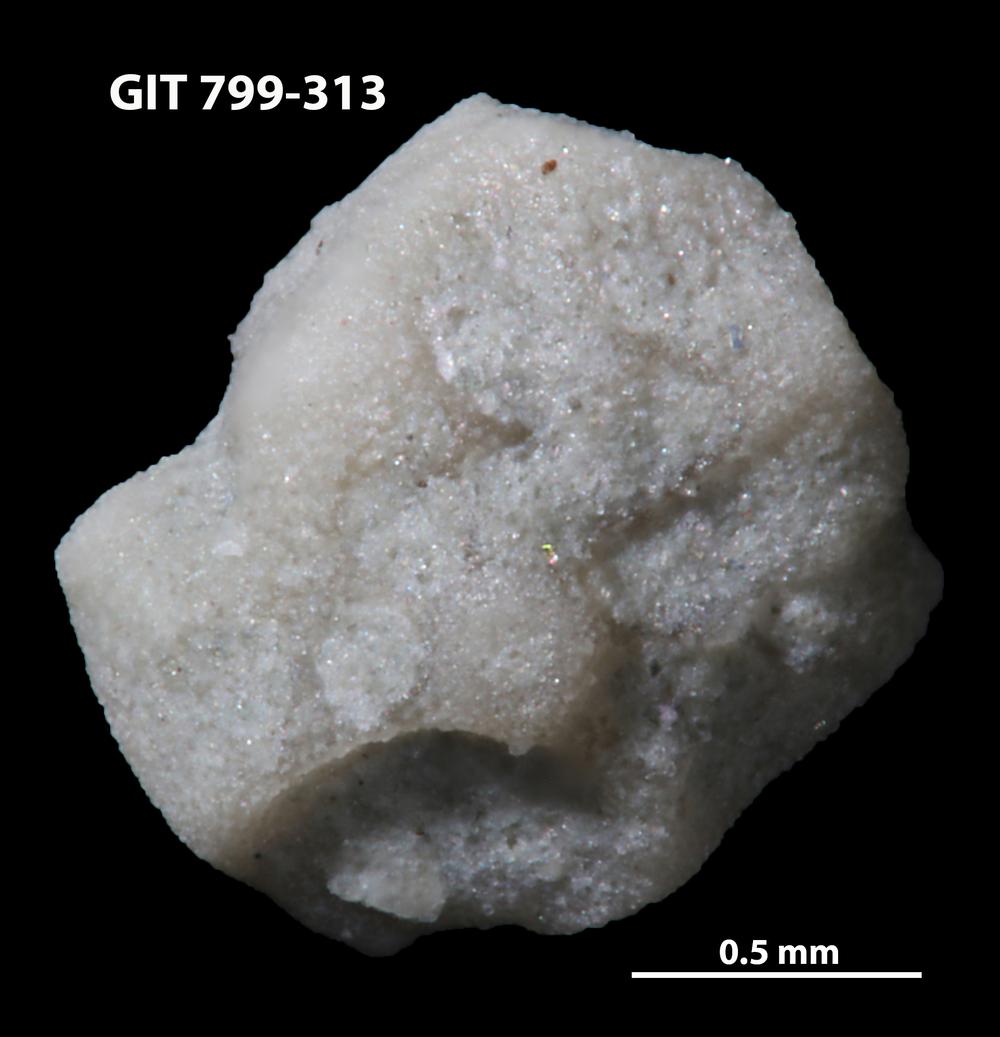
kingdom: Animalia
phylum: Echinodermata
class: Echinoidea
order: Bothriocidaroida
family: Bothriocidaridae
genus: Neobothriocidaris
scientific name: Neobothriocidaris
